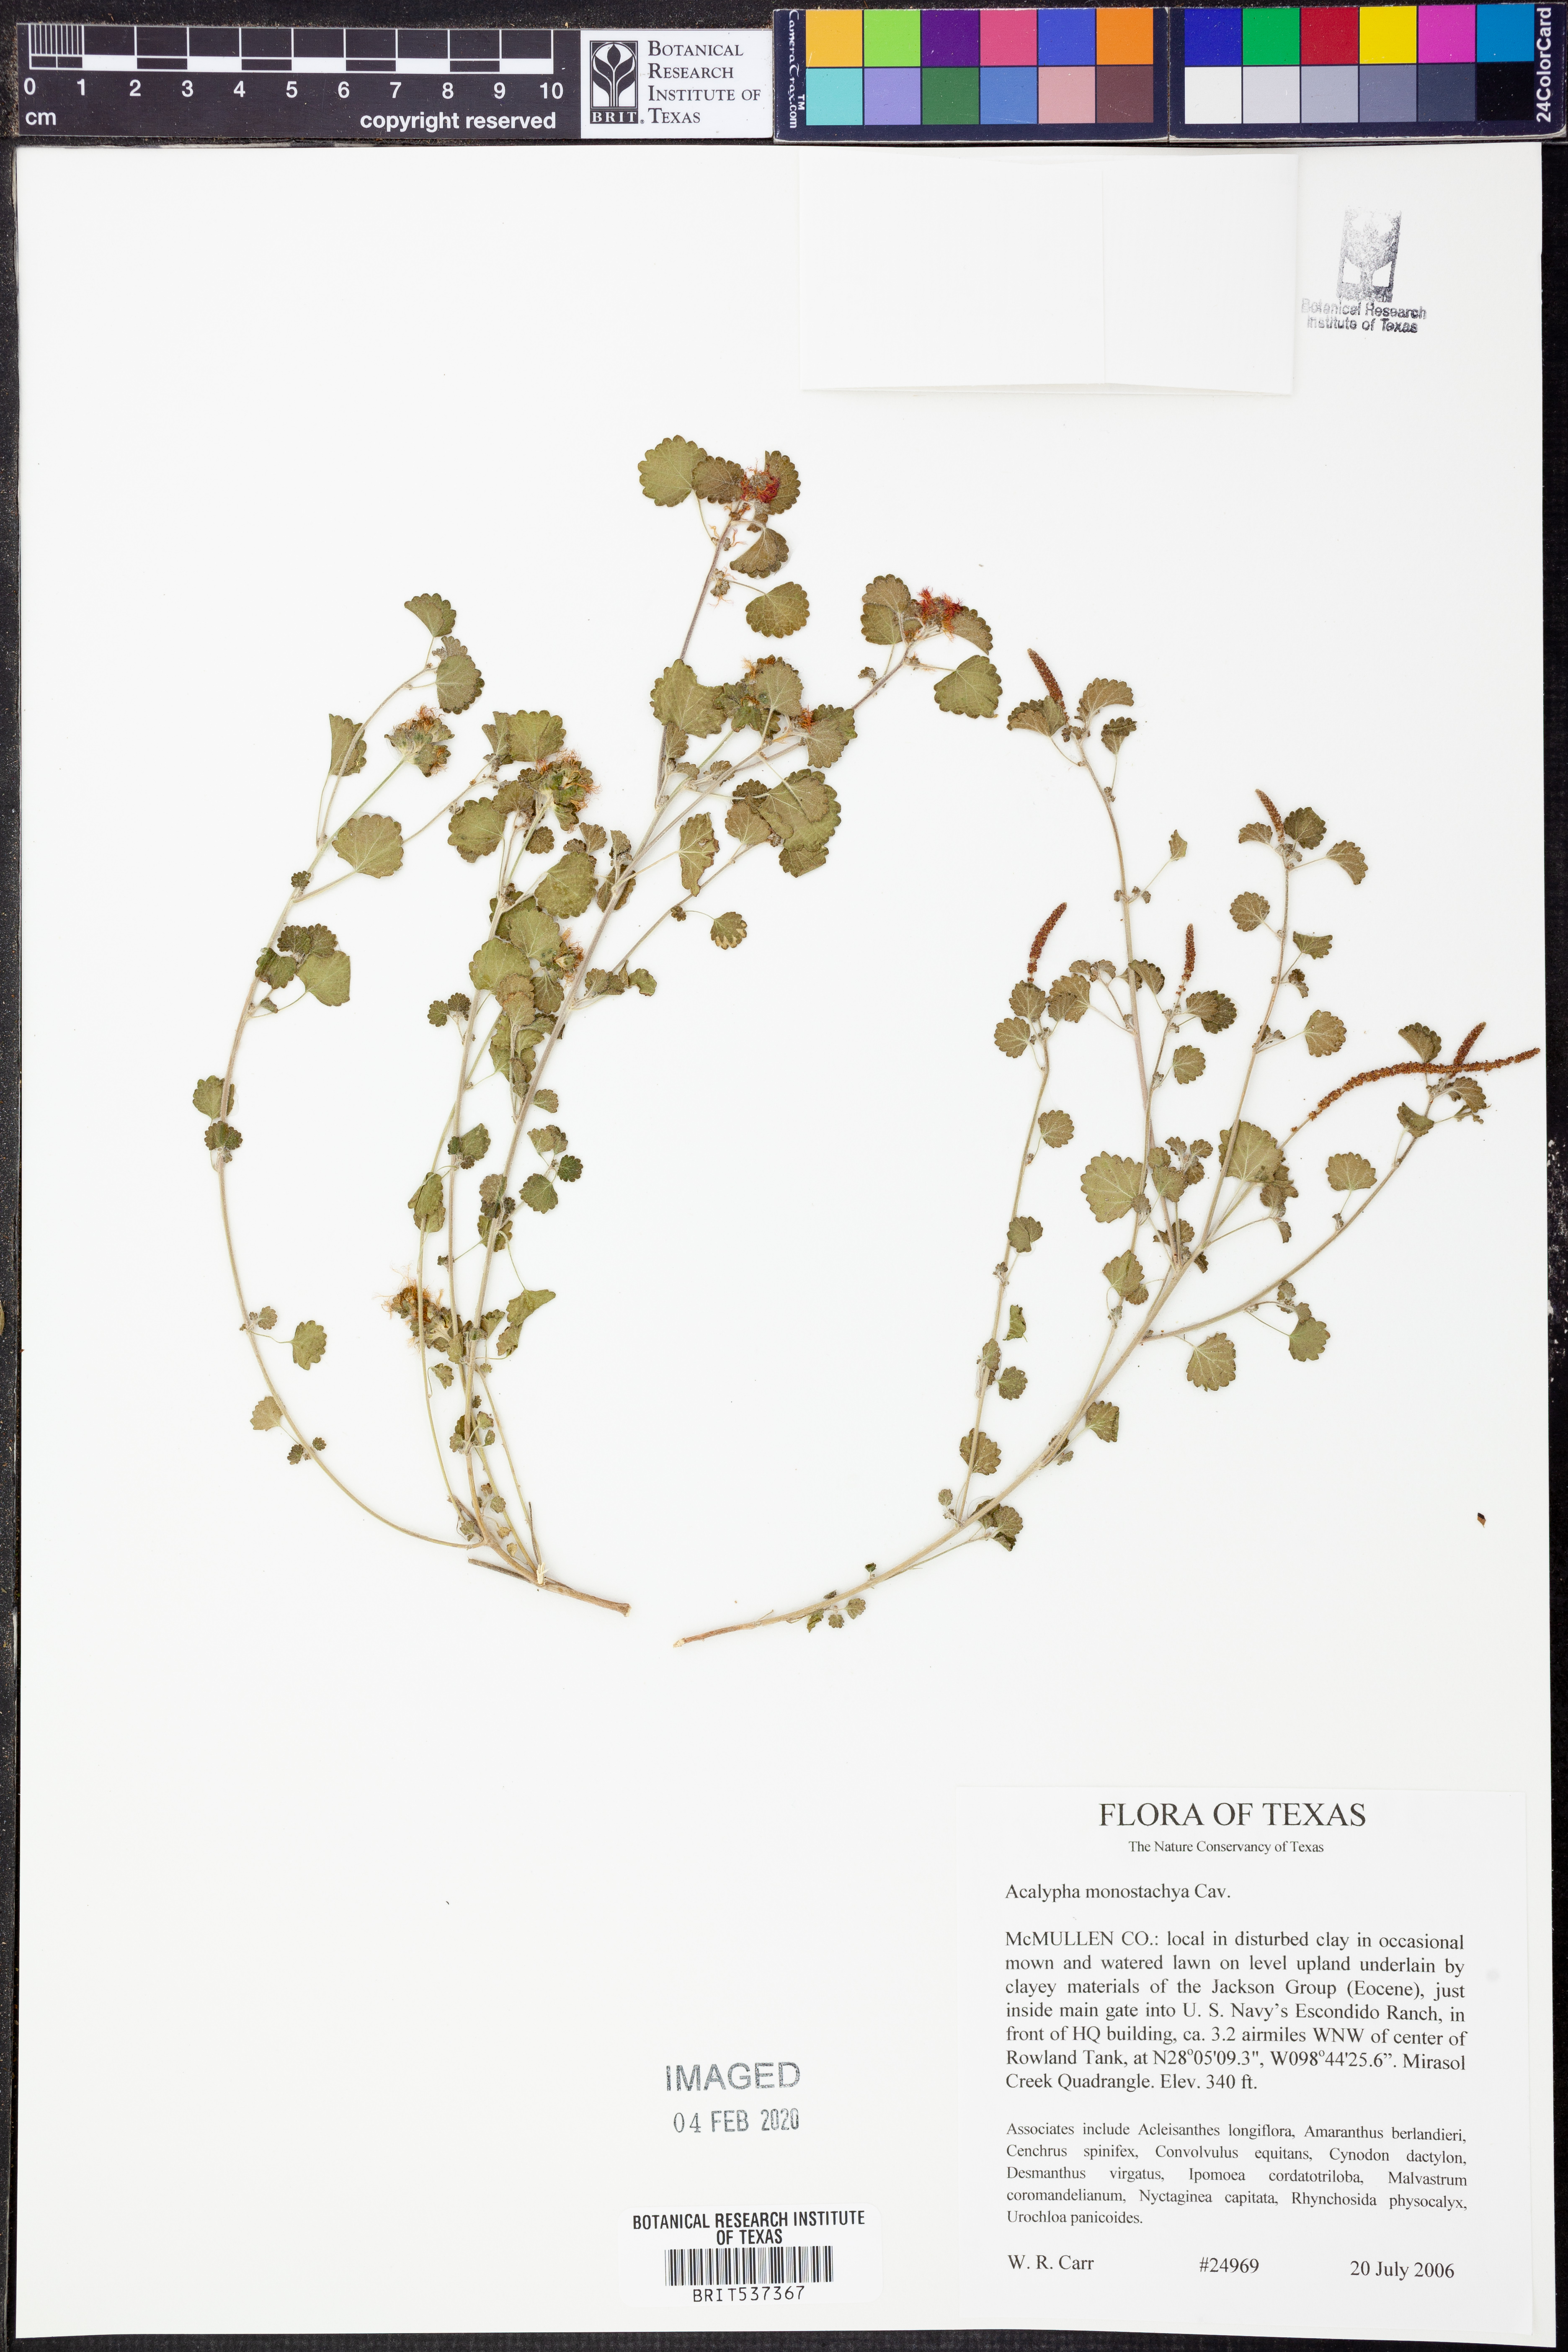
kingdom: Plantae
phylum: Tracheophyta
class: Magnoliopsida
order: Malpighiales
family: Euphorbiaceae
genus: Acalypha
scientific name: Acalypha monostachya
